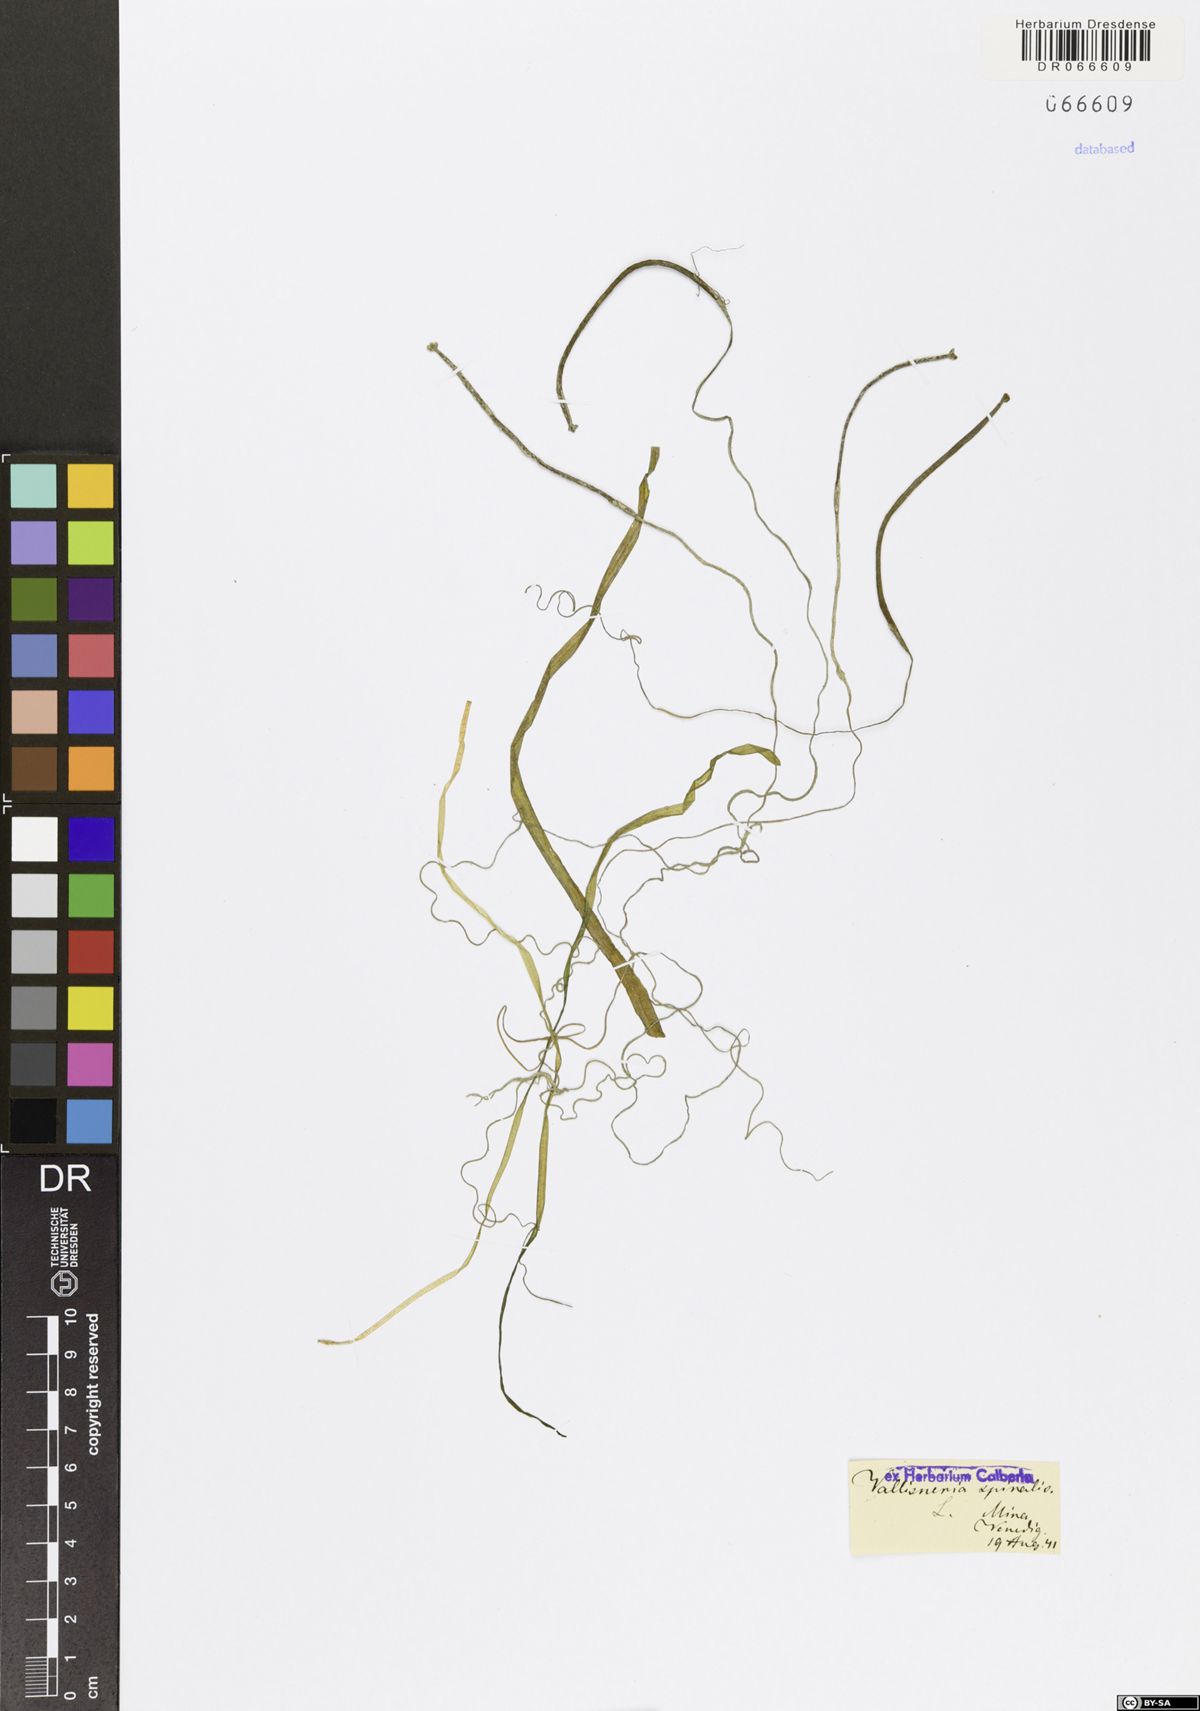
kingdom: Plantae
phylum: Tracheophyta
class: Liliopsida
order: Alismatales
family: Hydrocharitaceae
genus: Vallisneria
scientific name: Vallisneria spiralis
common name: Tapegrass
